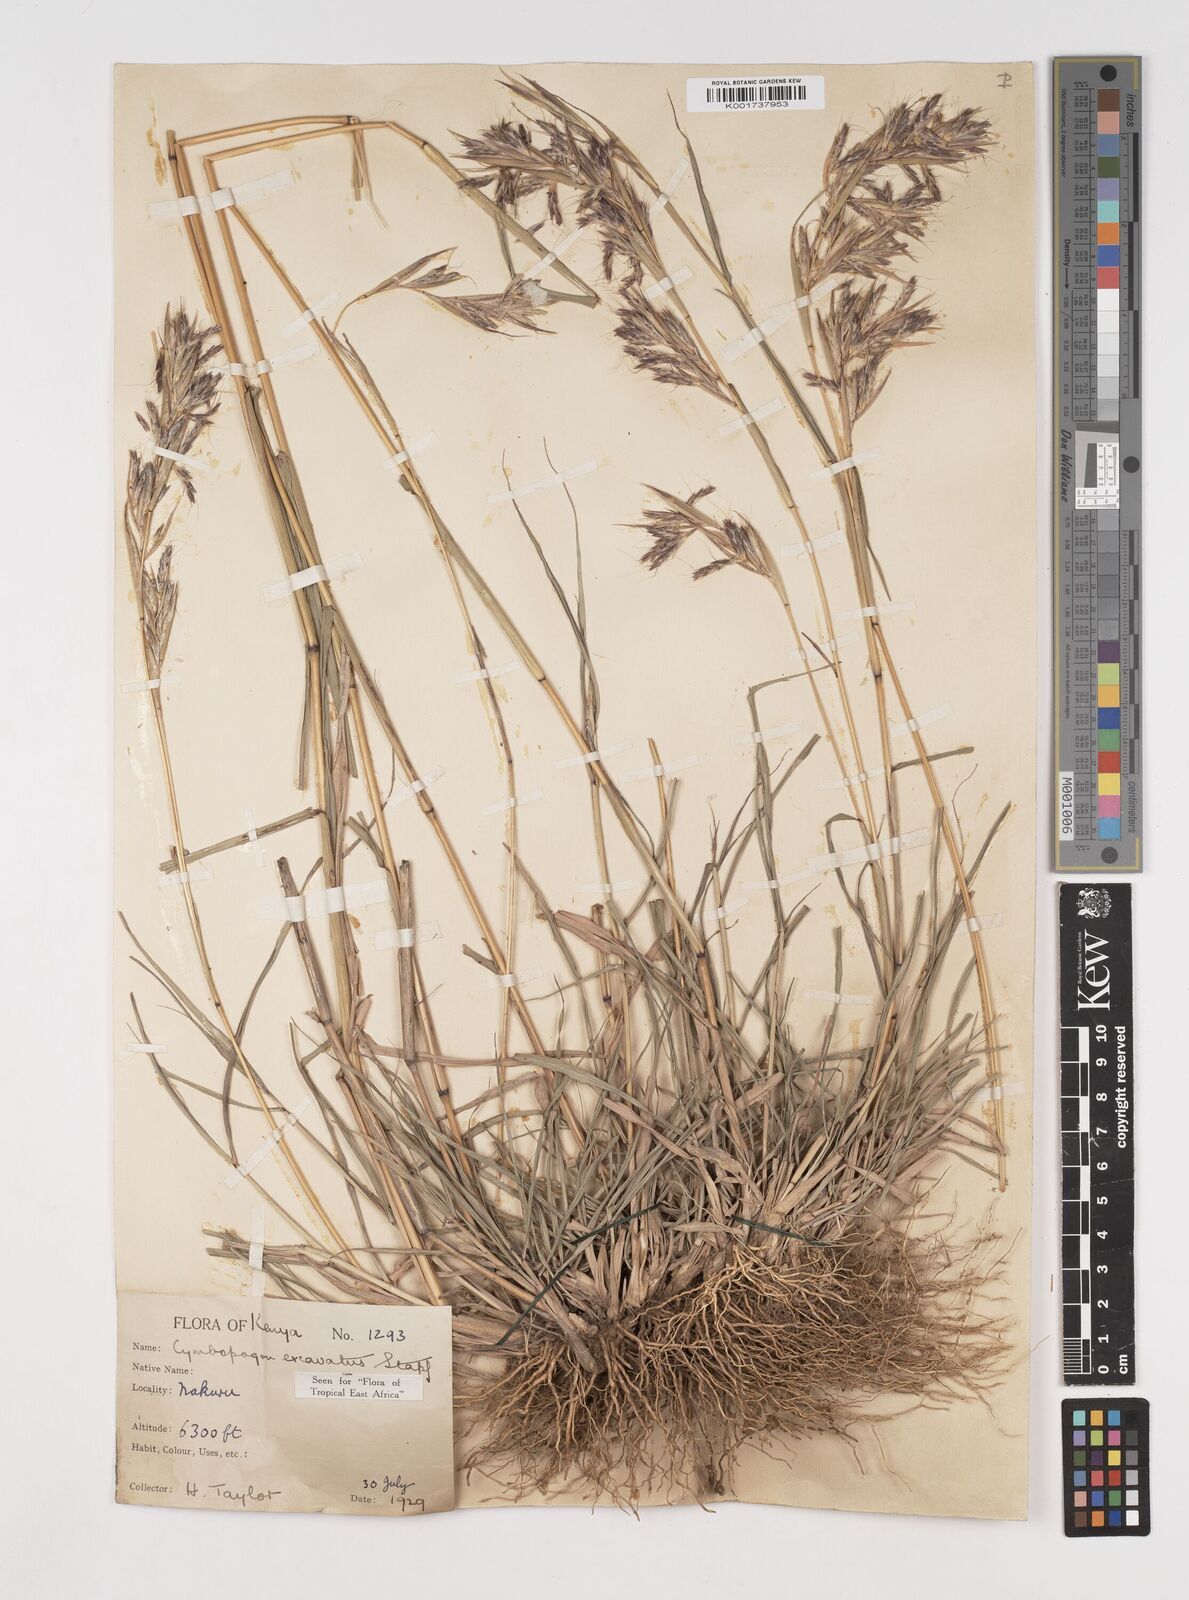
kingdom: Plantae
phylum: Tracheophyta
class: Liliopsida
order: Poales
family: Poaceae
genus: Cymbopogon
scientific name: Cymbopogon caesius
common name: Kachi grass
